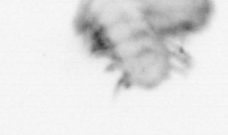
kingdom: Animalia
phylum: Annelida
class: Polychaeta
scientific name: Polychaeta
